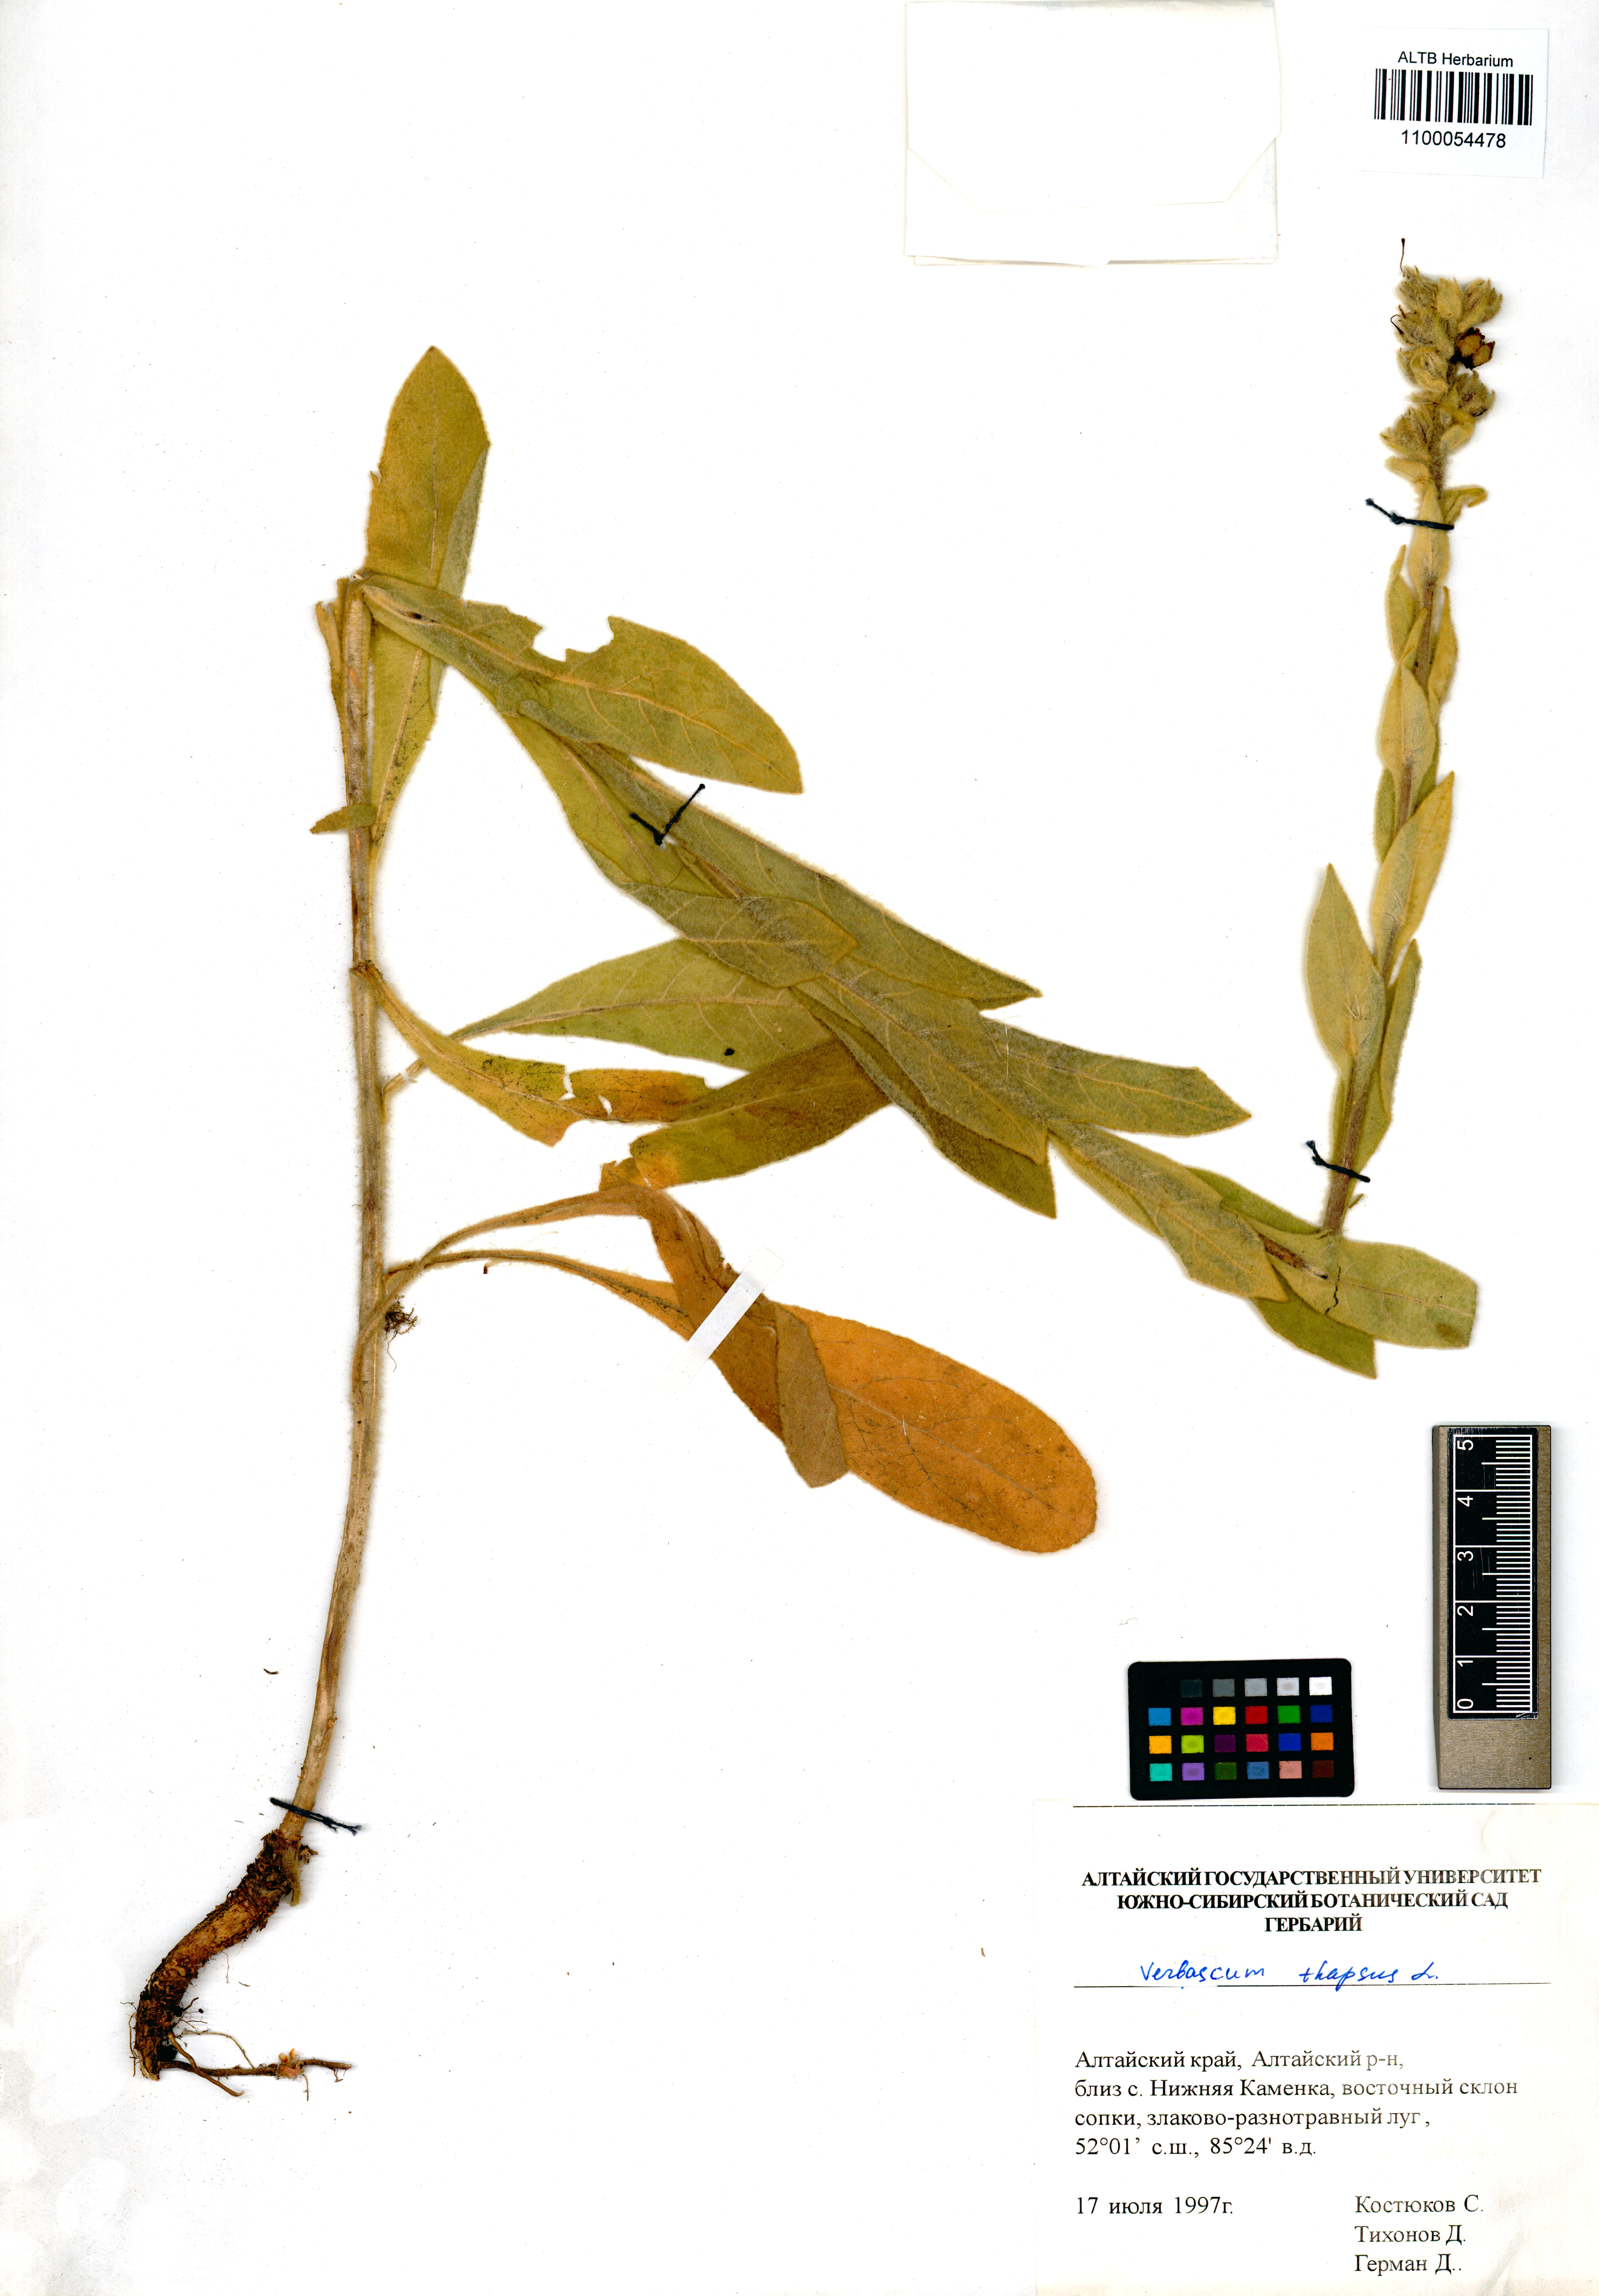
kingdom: Plantae
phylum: Tracheophyta
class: Magnoliopsida
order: Lamiales
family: Scrophulariaceae
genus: Verbascum
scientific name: Verbascum thapsus
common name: Common mullein
